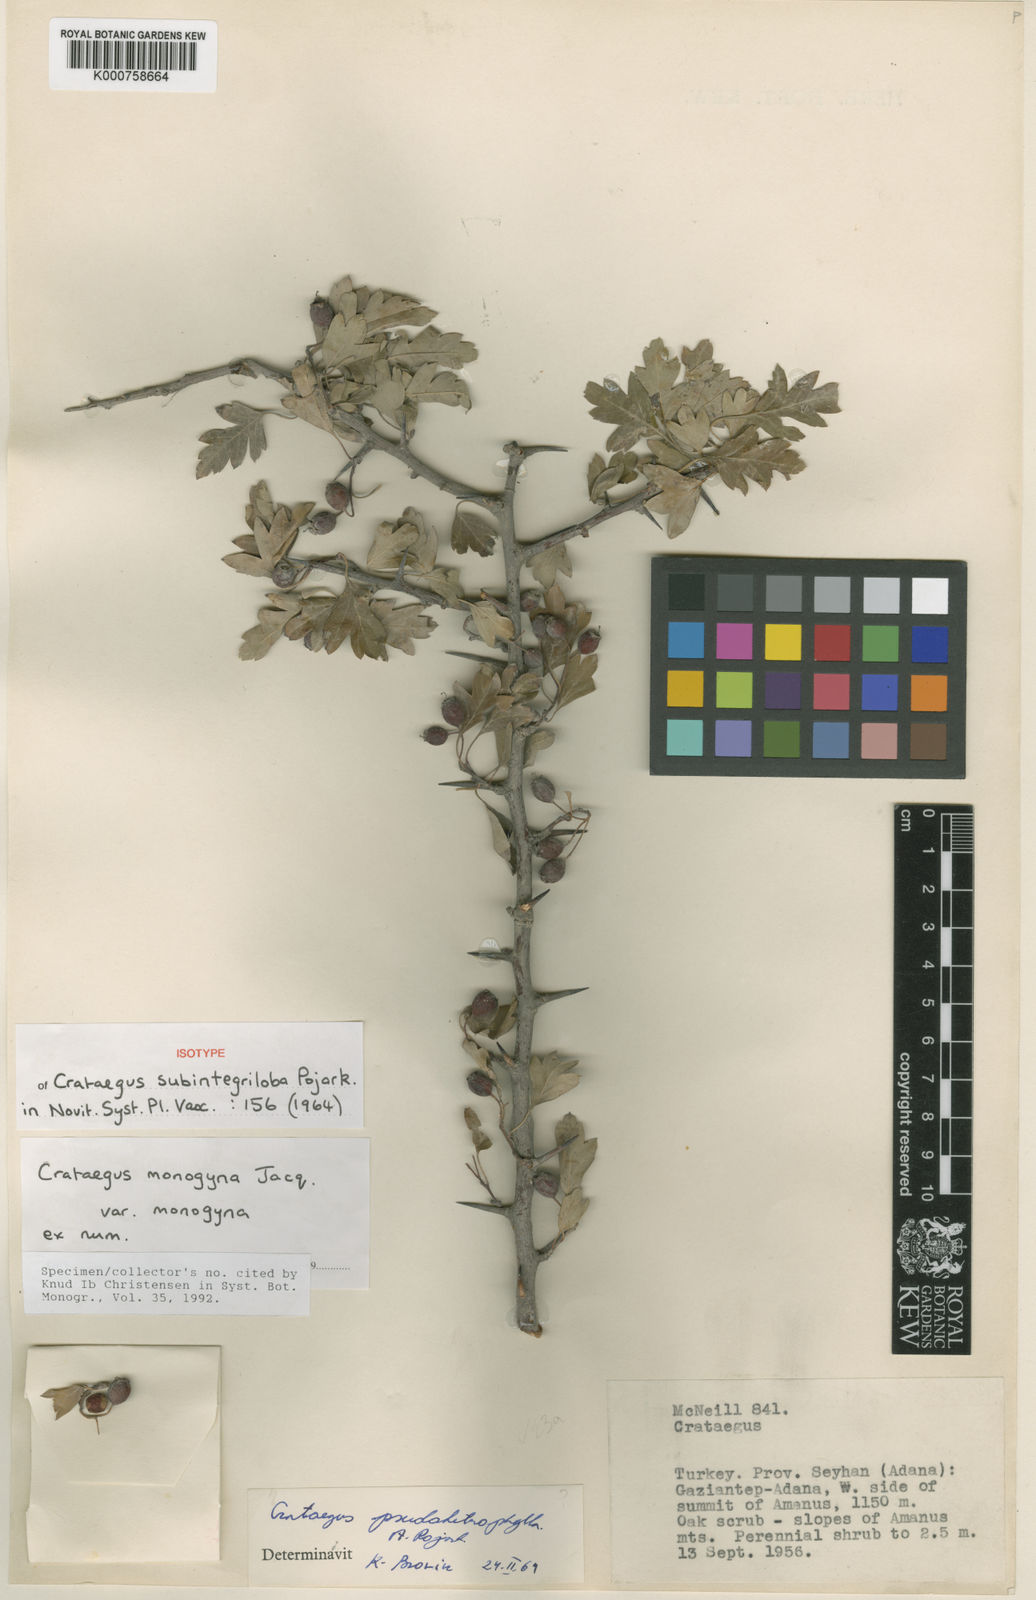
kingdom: Plantae
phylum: Tracheophyta
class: Magnoliopsida
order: Rosales
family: Rosaceae
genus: Crataegus
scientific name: Crataegus monogyna
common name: Hawthorn
